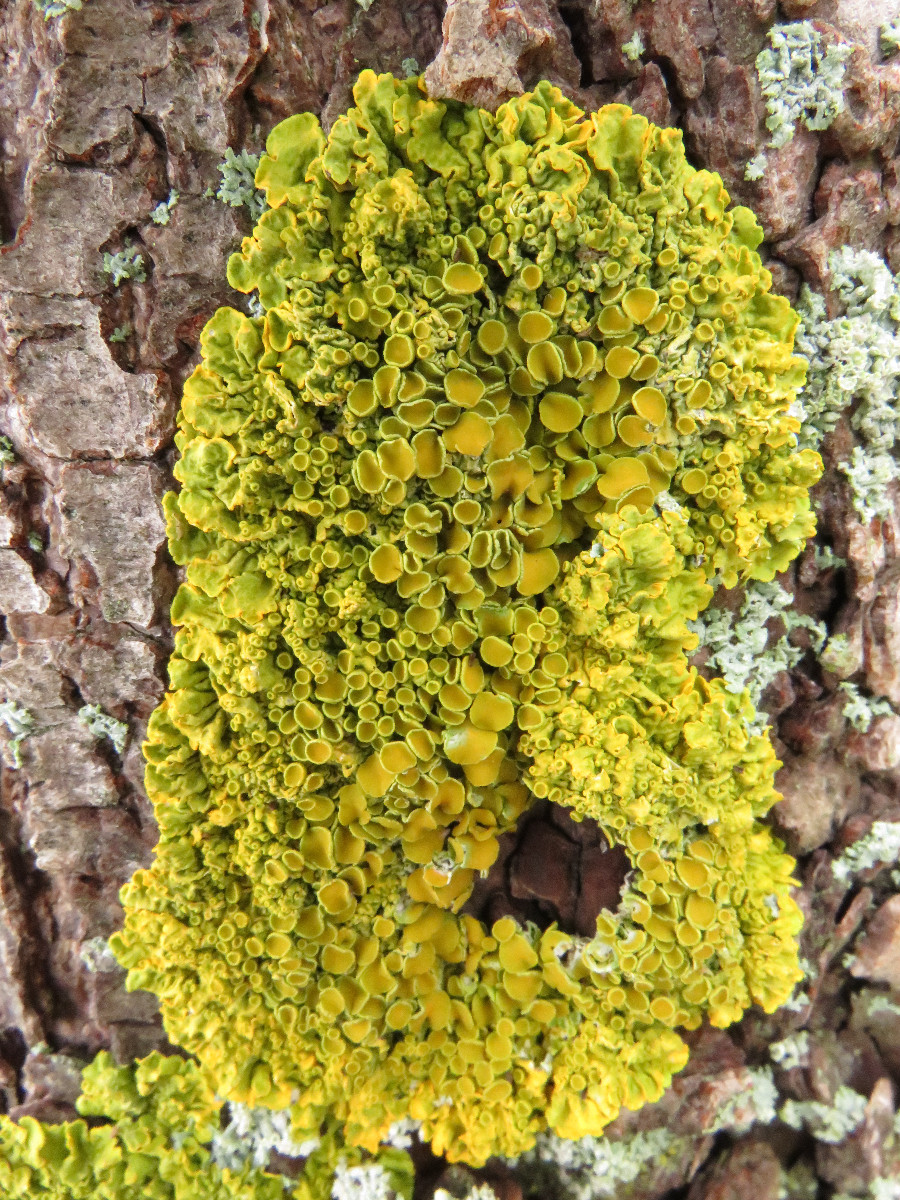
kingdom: Fungi
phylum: Ascomycota
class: Lecanoromycetes
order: Teloschistales
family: Teloschistaceae
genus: Xanthoria
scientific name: Xanthoria parietina
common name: almindelig væggelav
